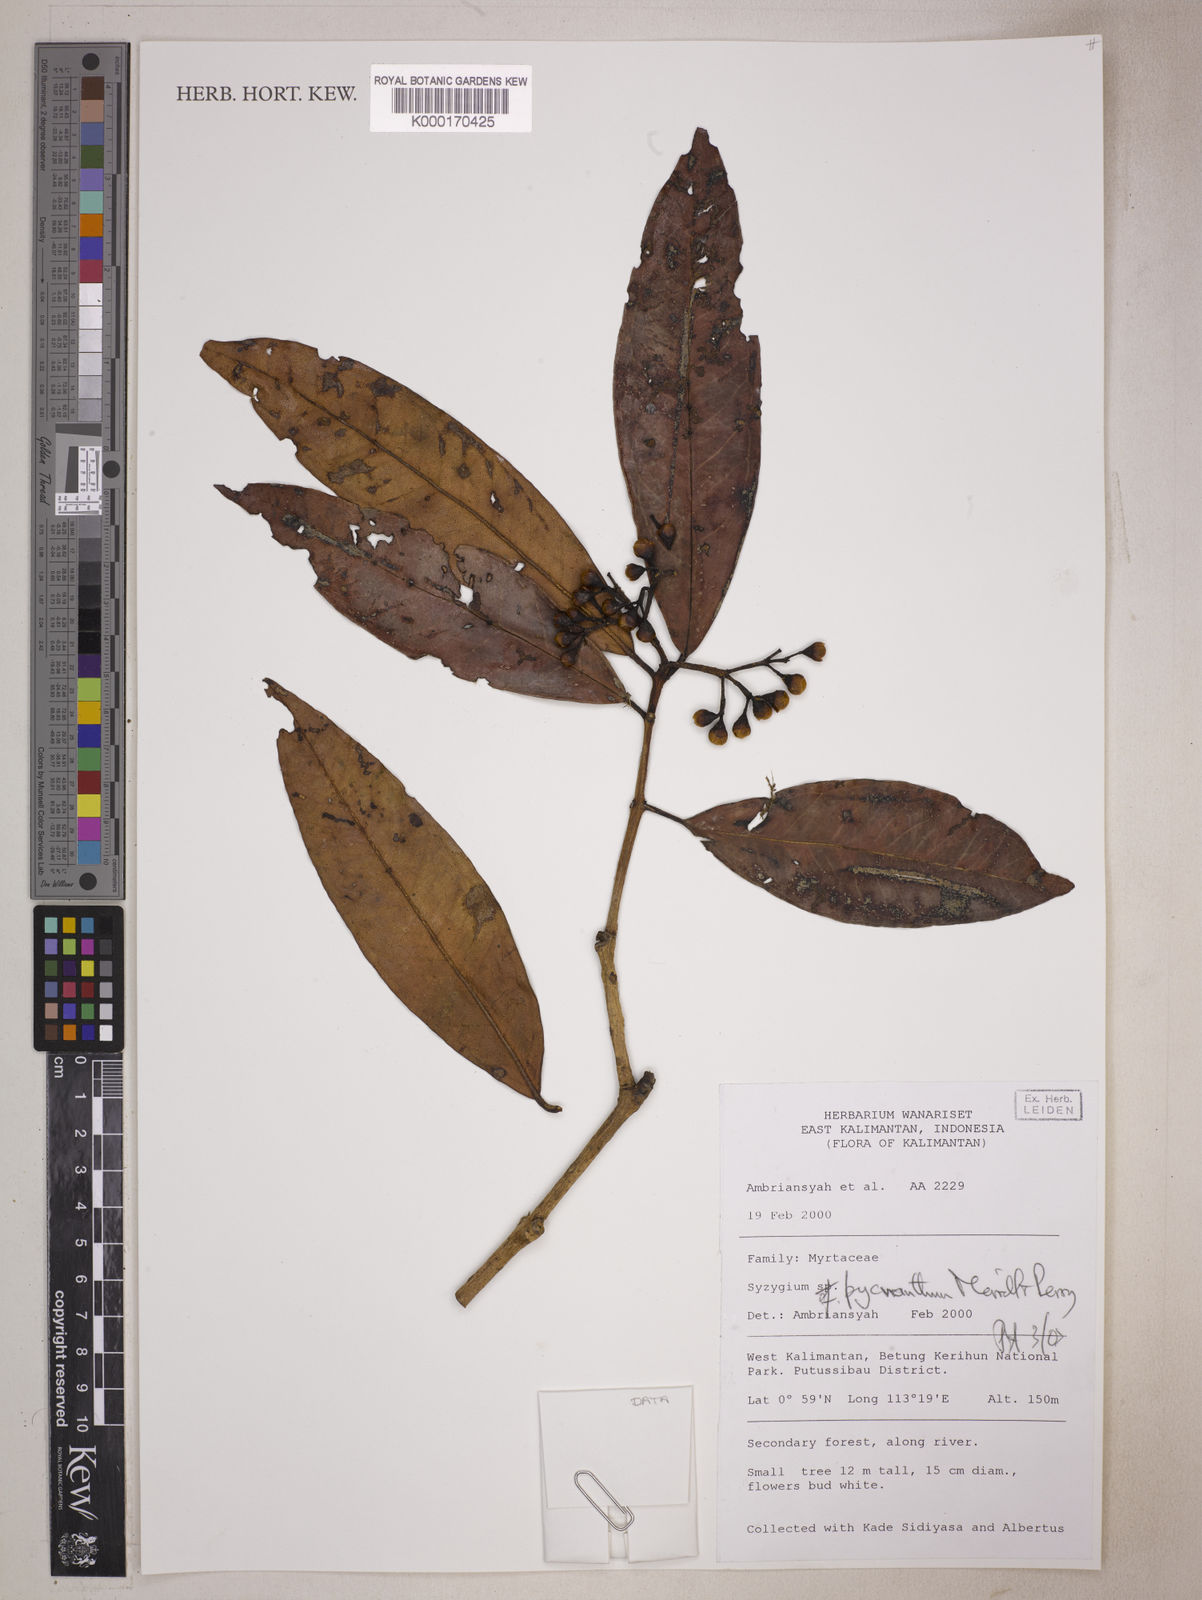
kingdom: Plantae
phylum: Tracheophyta
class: Magnoliopsida
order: Myrtales
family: Myrtaceae
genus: Syzygium
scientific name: Syzygium pycnanthum
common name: Wild rose
